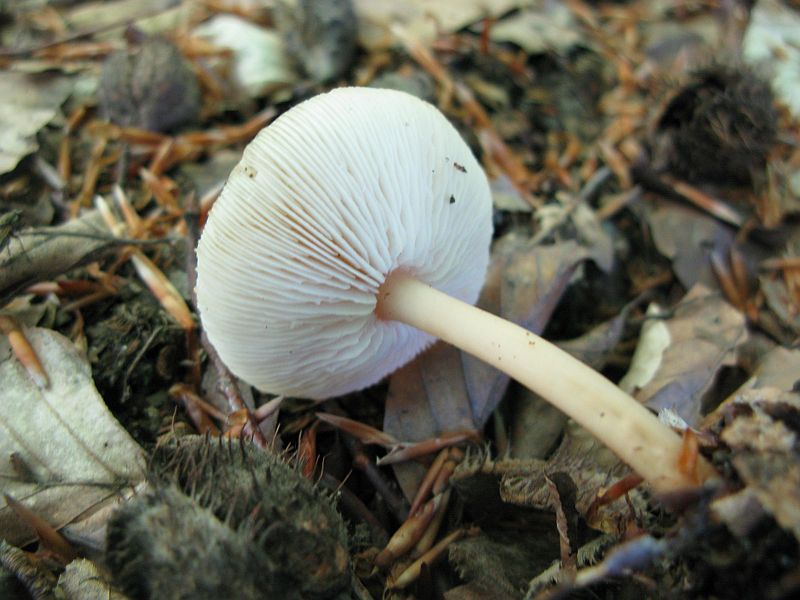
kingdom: Fungi
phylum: Basidiomycota
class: Agaricomycetes
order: Agaricales
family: Omphalotaceae
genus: Gymnopus
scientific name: Gymnopus aquosus
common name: bleg fladhat
